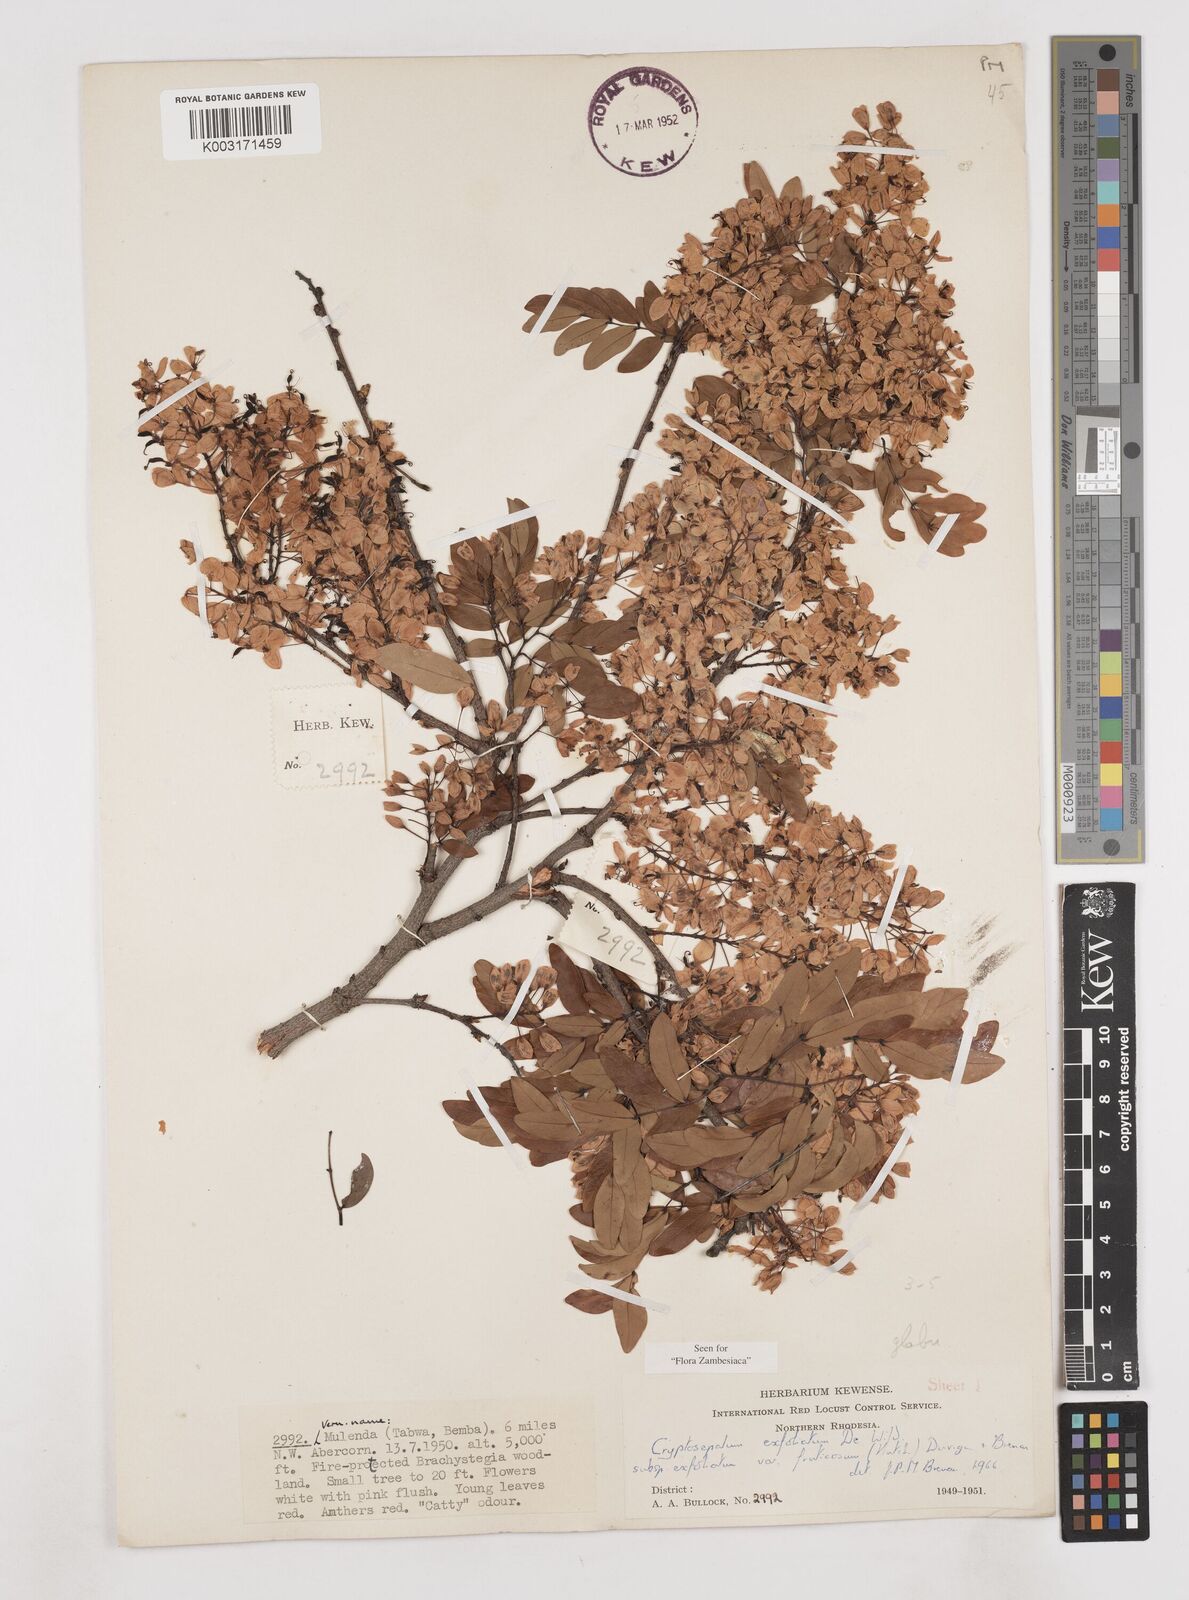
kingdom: Plantae
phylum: Tracheophyta
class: Magnoliopsida
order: Fabales
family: Fabaceae
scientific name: Fabaceae
